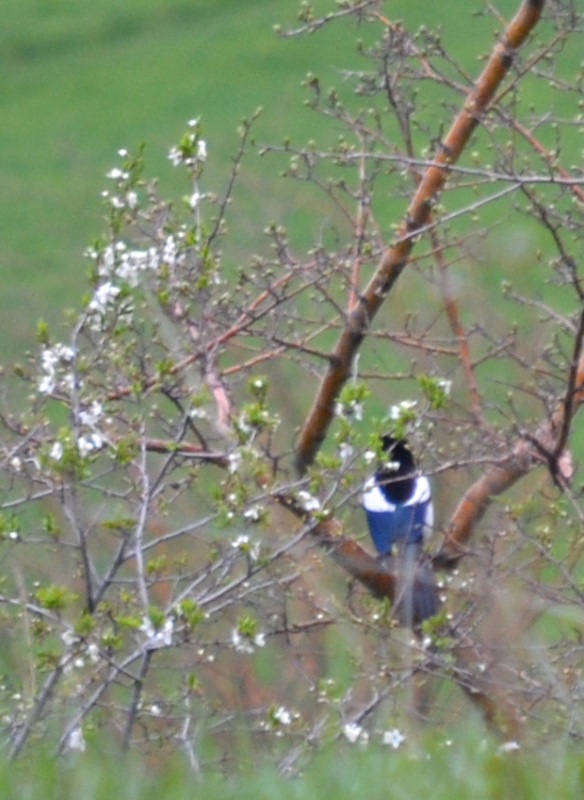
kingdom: Animalia
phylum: Chordata
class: Aves
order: Passeriformes
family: Corvidae
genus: Pica
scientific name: Pica pica
